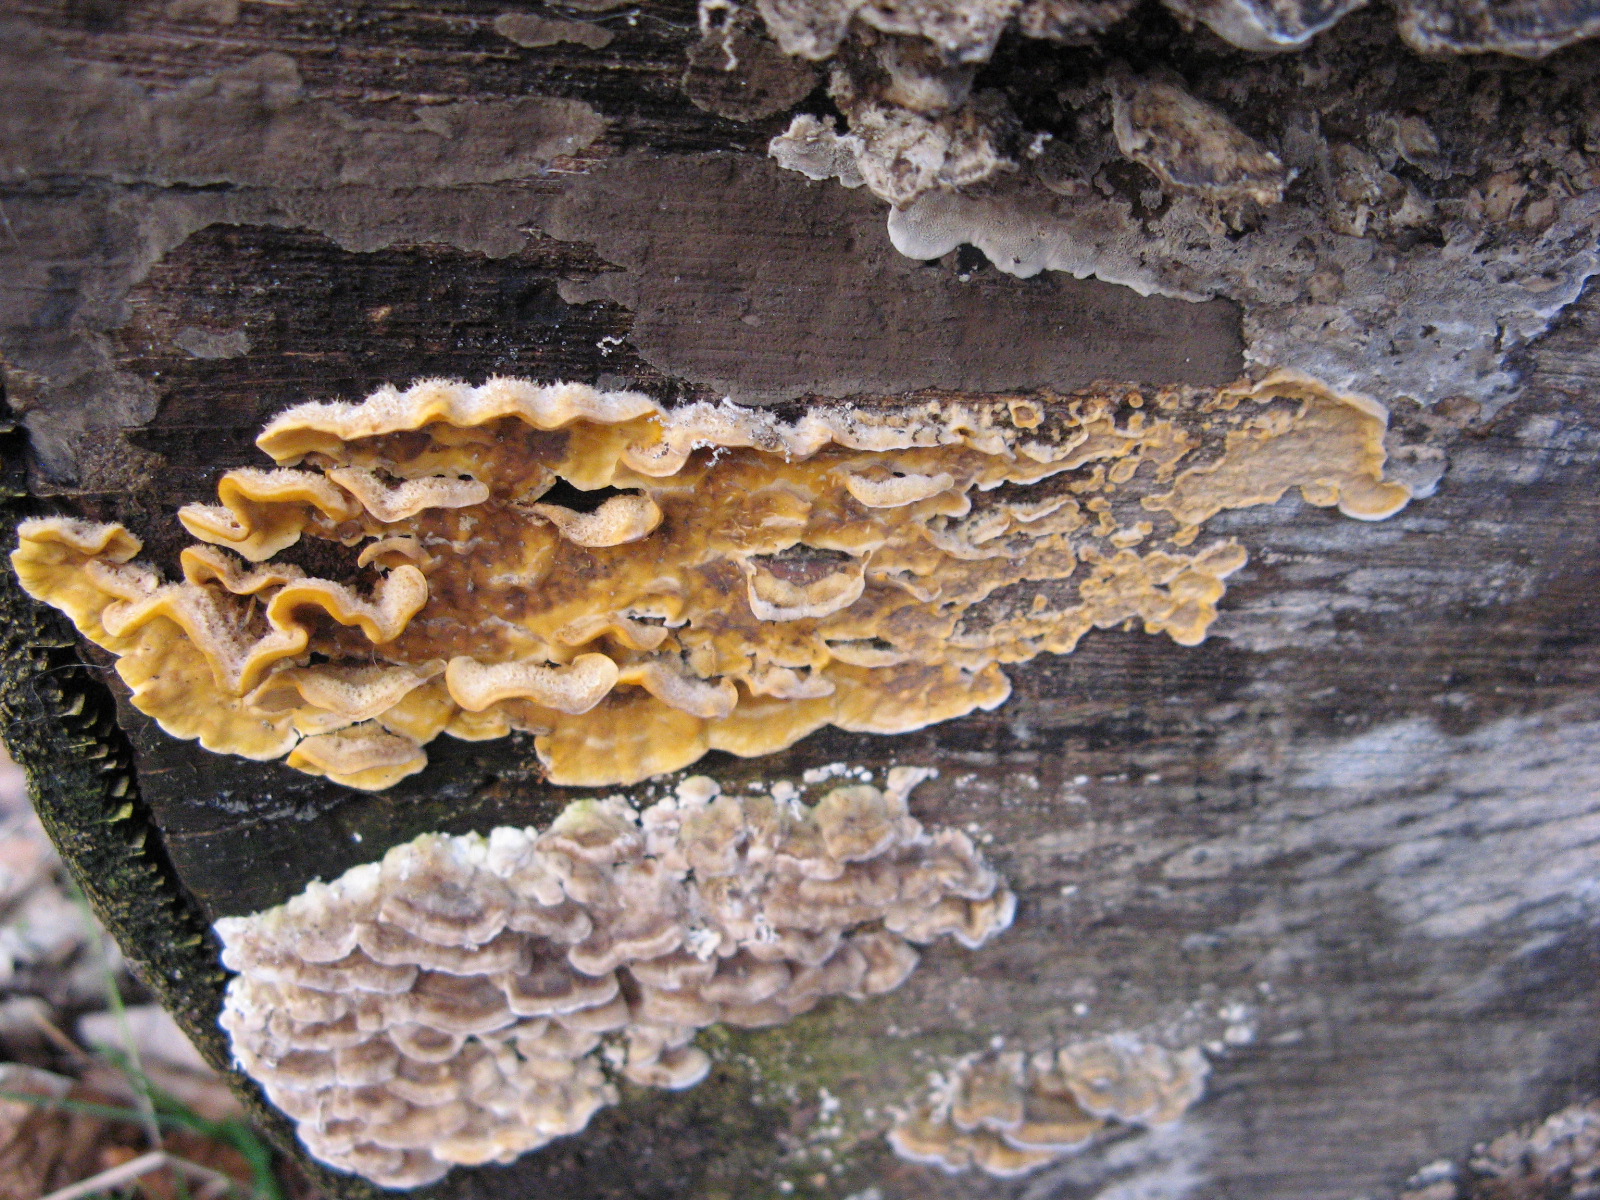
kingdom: Fungi
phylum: Basidiomycota
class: Agaricomycetes
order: Russulales
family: Stereaceae
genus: Stereum
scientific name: Stereum hirsutum
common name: håret lædersvamp
